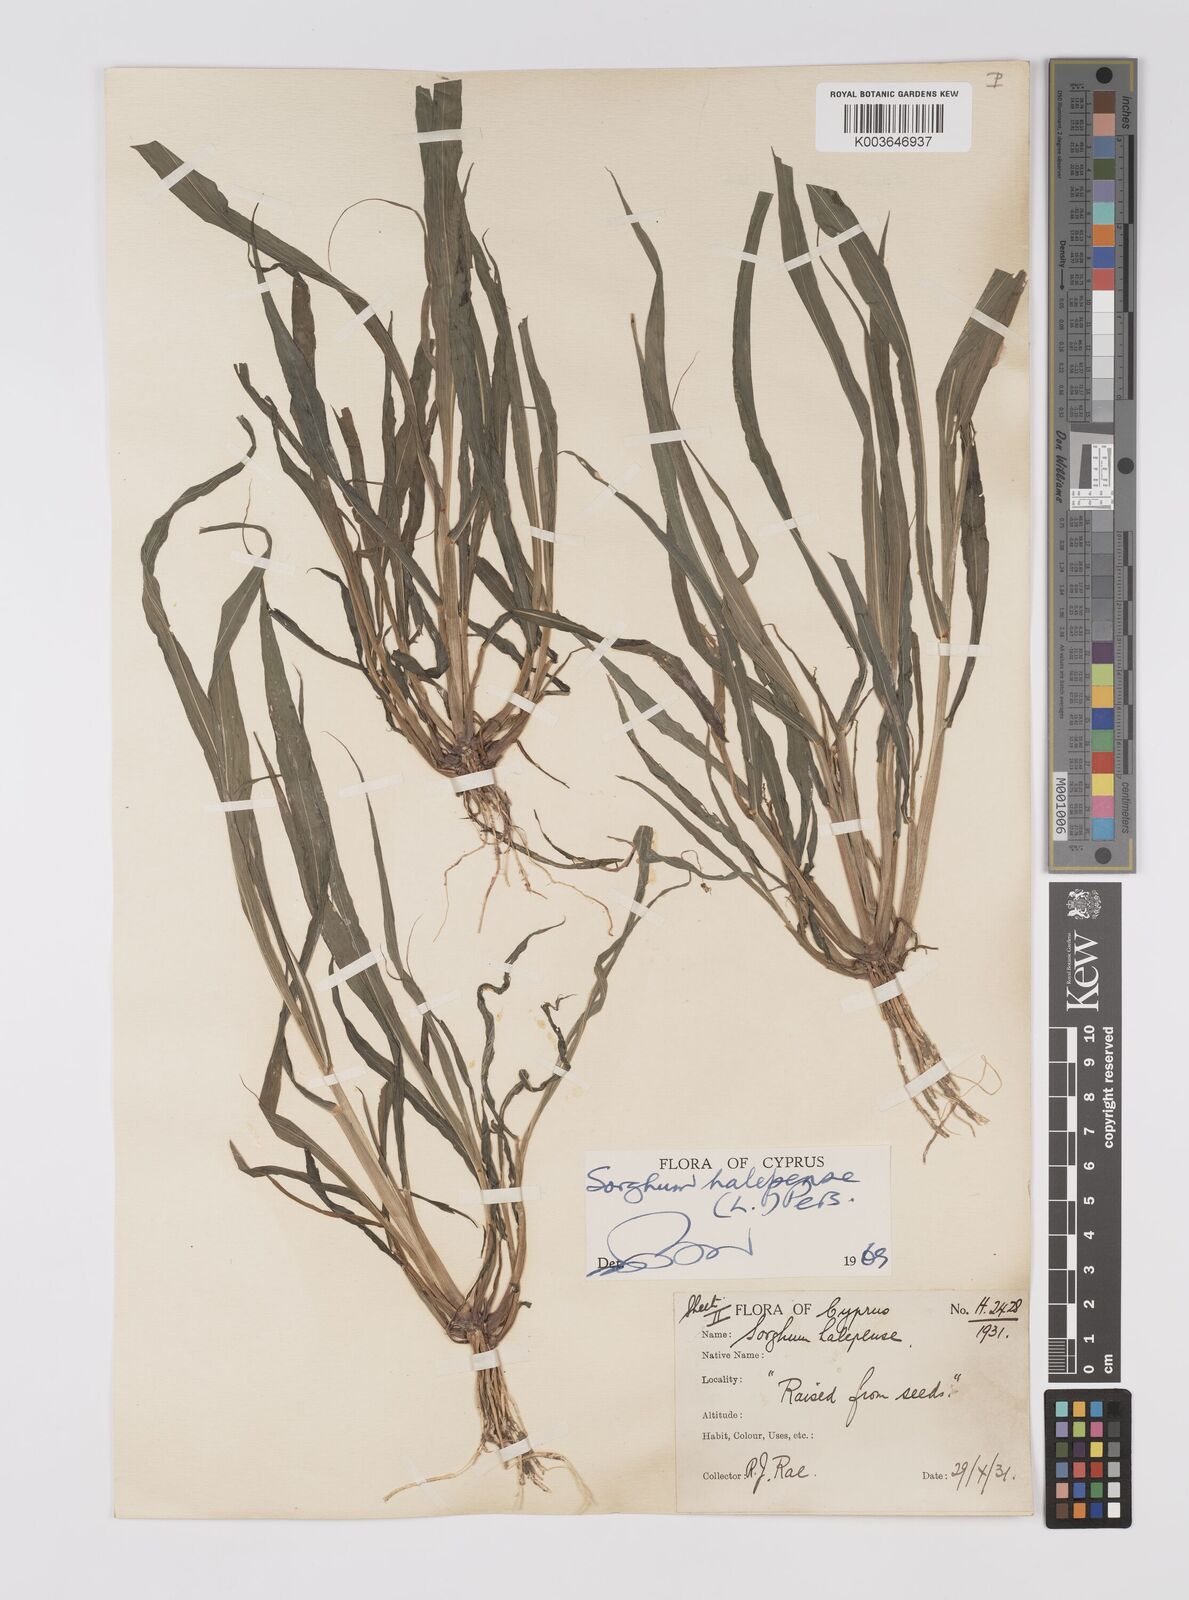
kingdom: Plantae
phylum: Tracheophyta
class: Liliopsida
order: Poales
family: Poaceae
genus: Sorghum
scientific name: Sorghum halepense
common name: Johnson-grass
